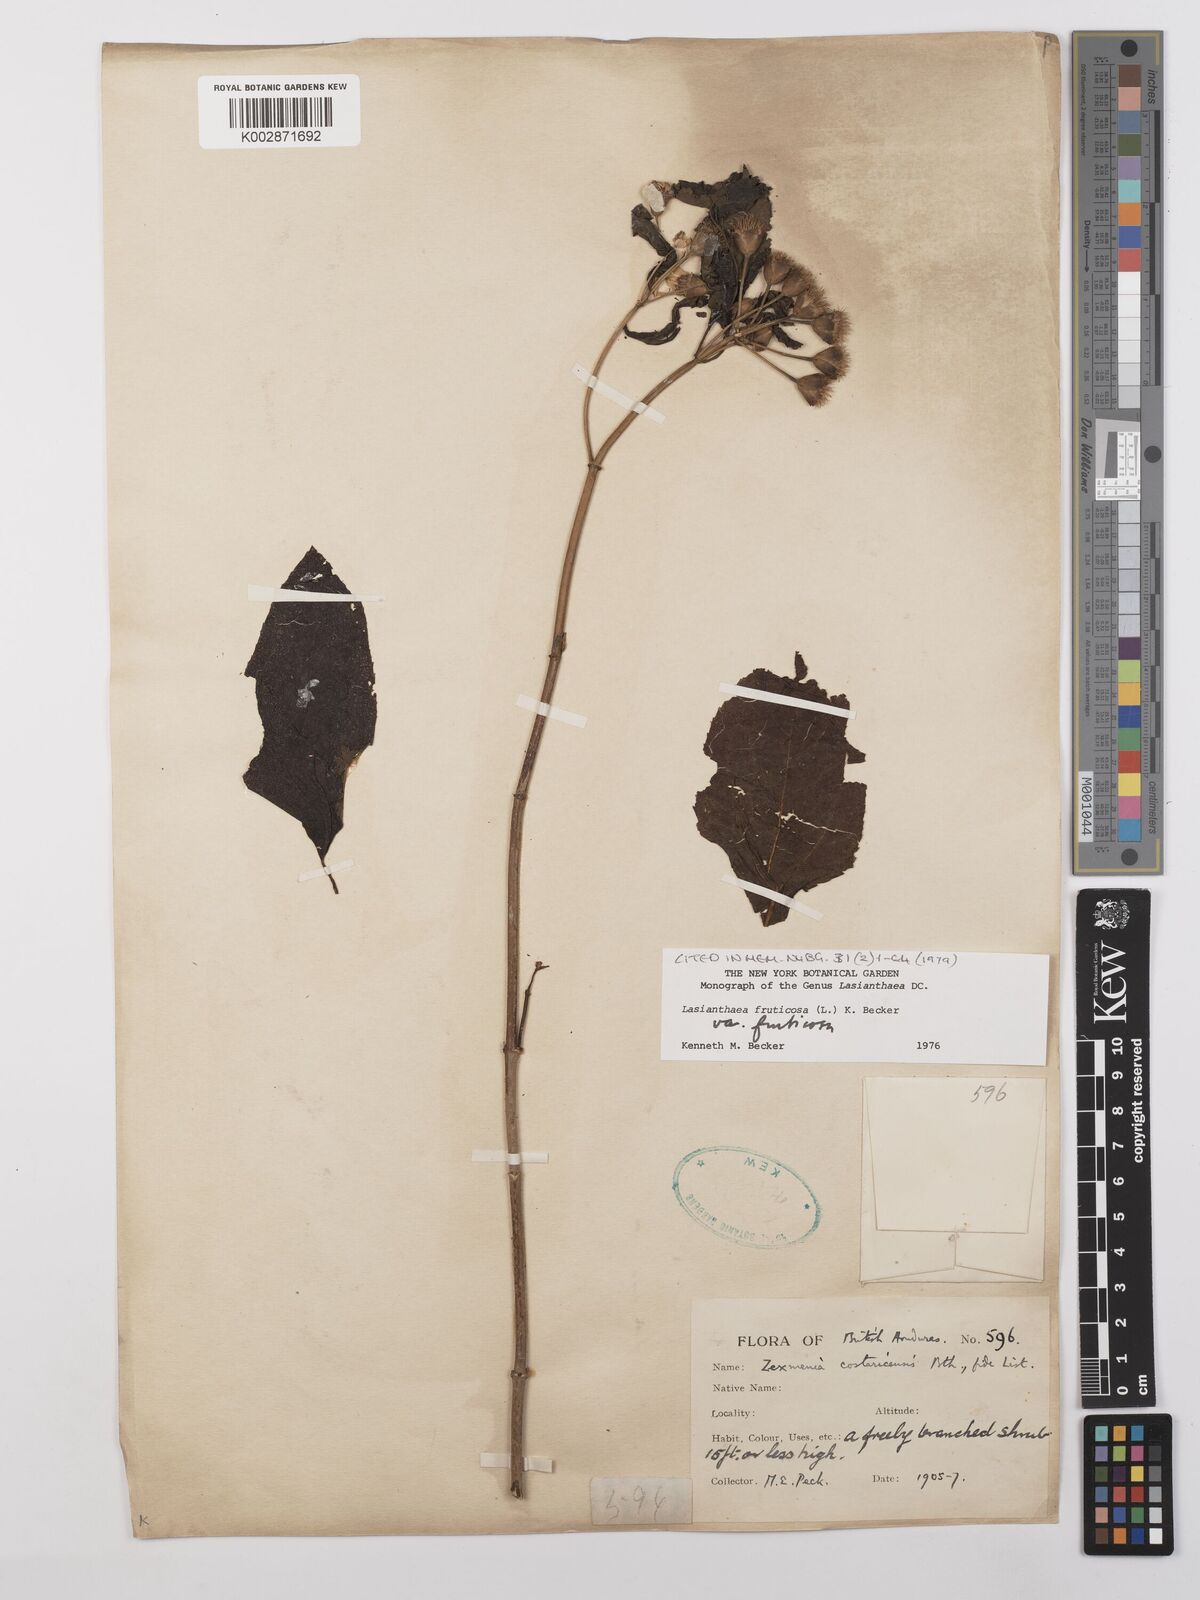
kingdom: Plantae
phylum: Tracheophyta
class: Magnoliopsida
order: Asterales
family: Asteraceae
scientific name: Asteraceae
